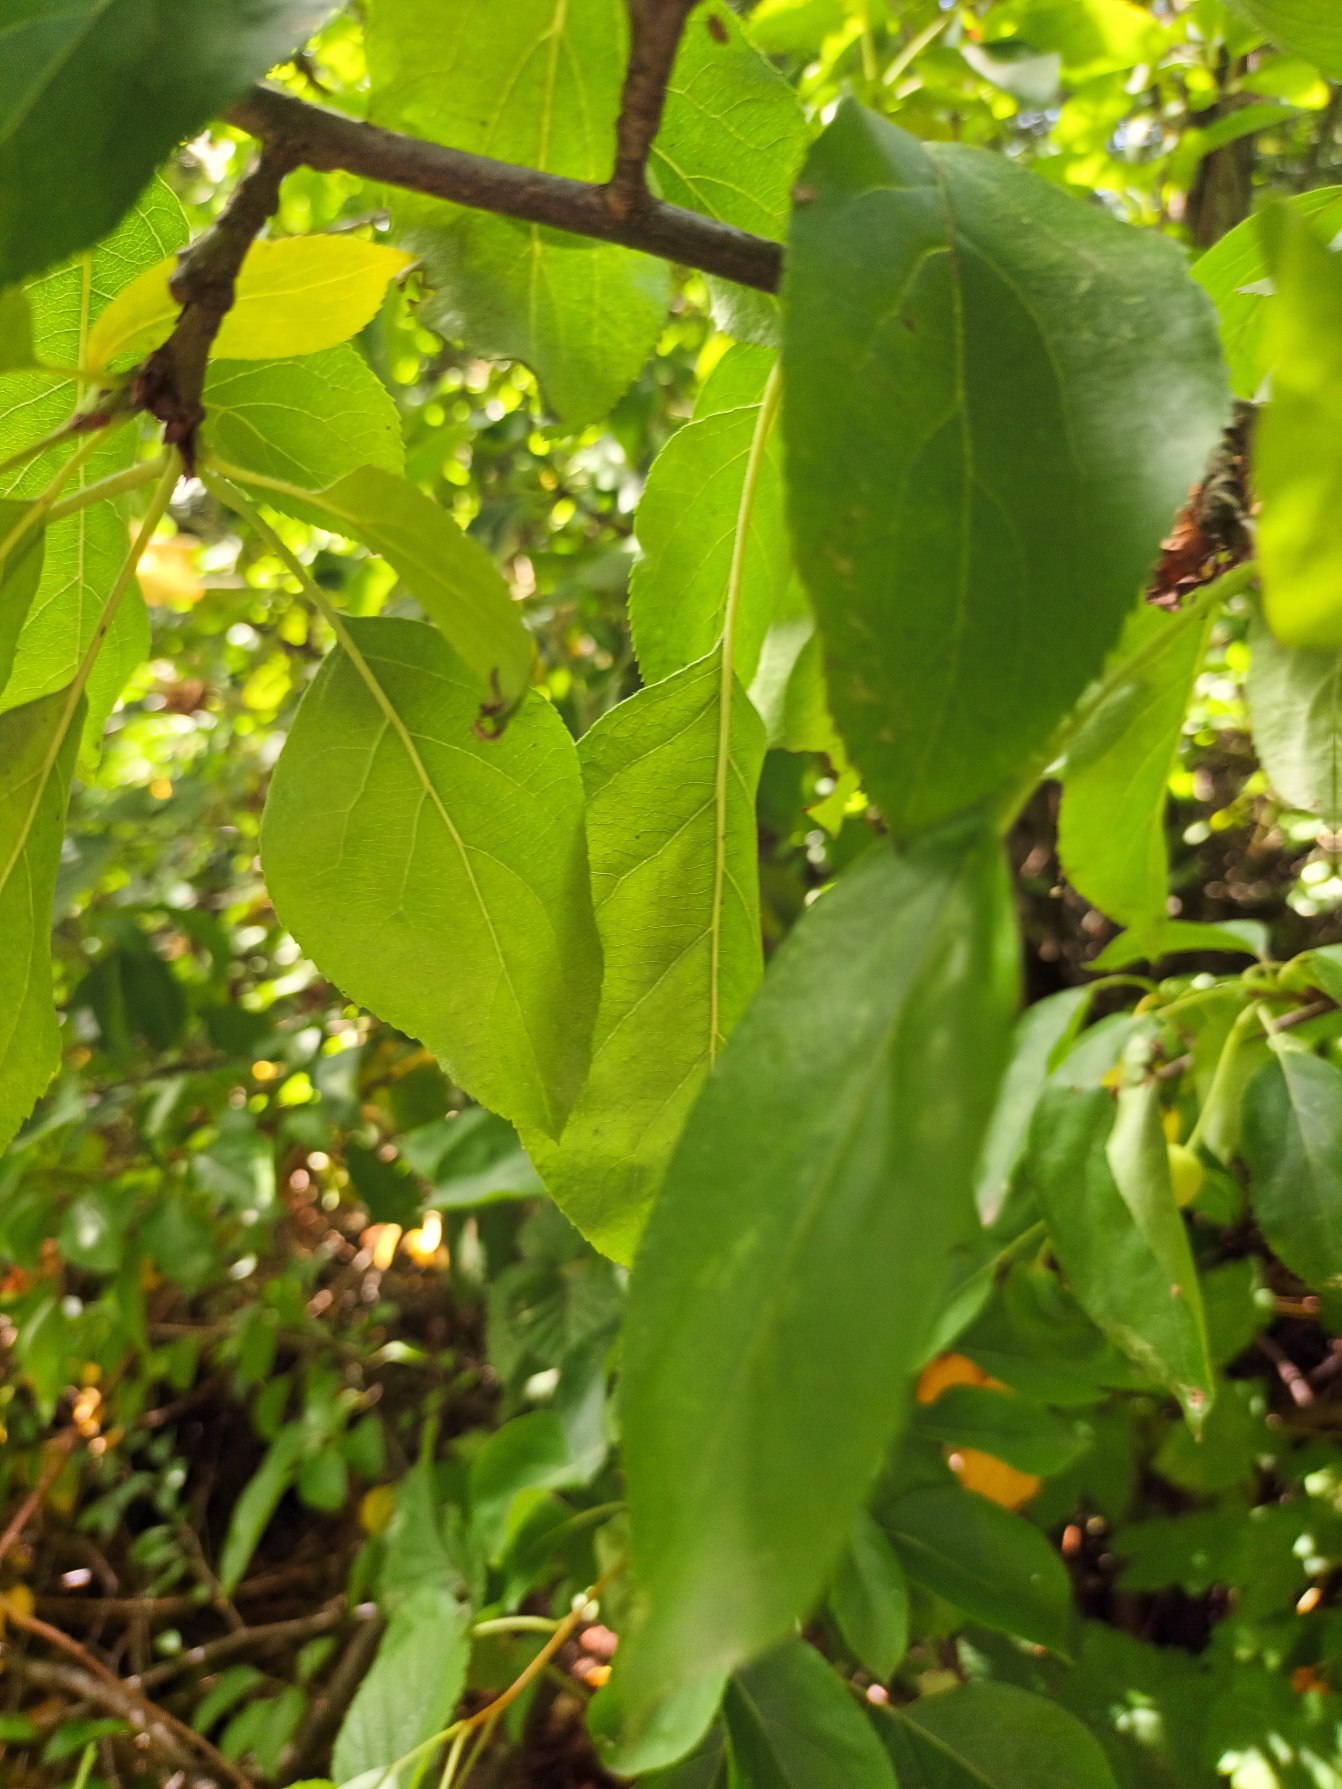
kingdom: Plantae
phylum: Tracheophyta
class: Magnoliopsida
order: Rosales
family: Rosaceae
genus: Malus
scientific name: Malus hupehensis
